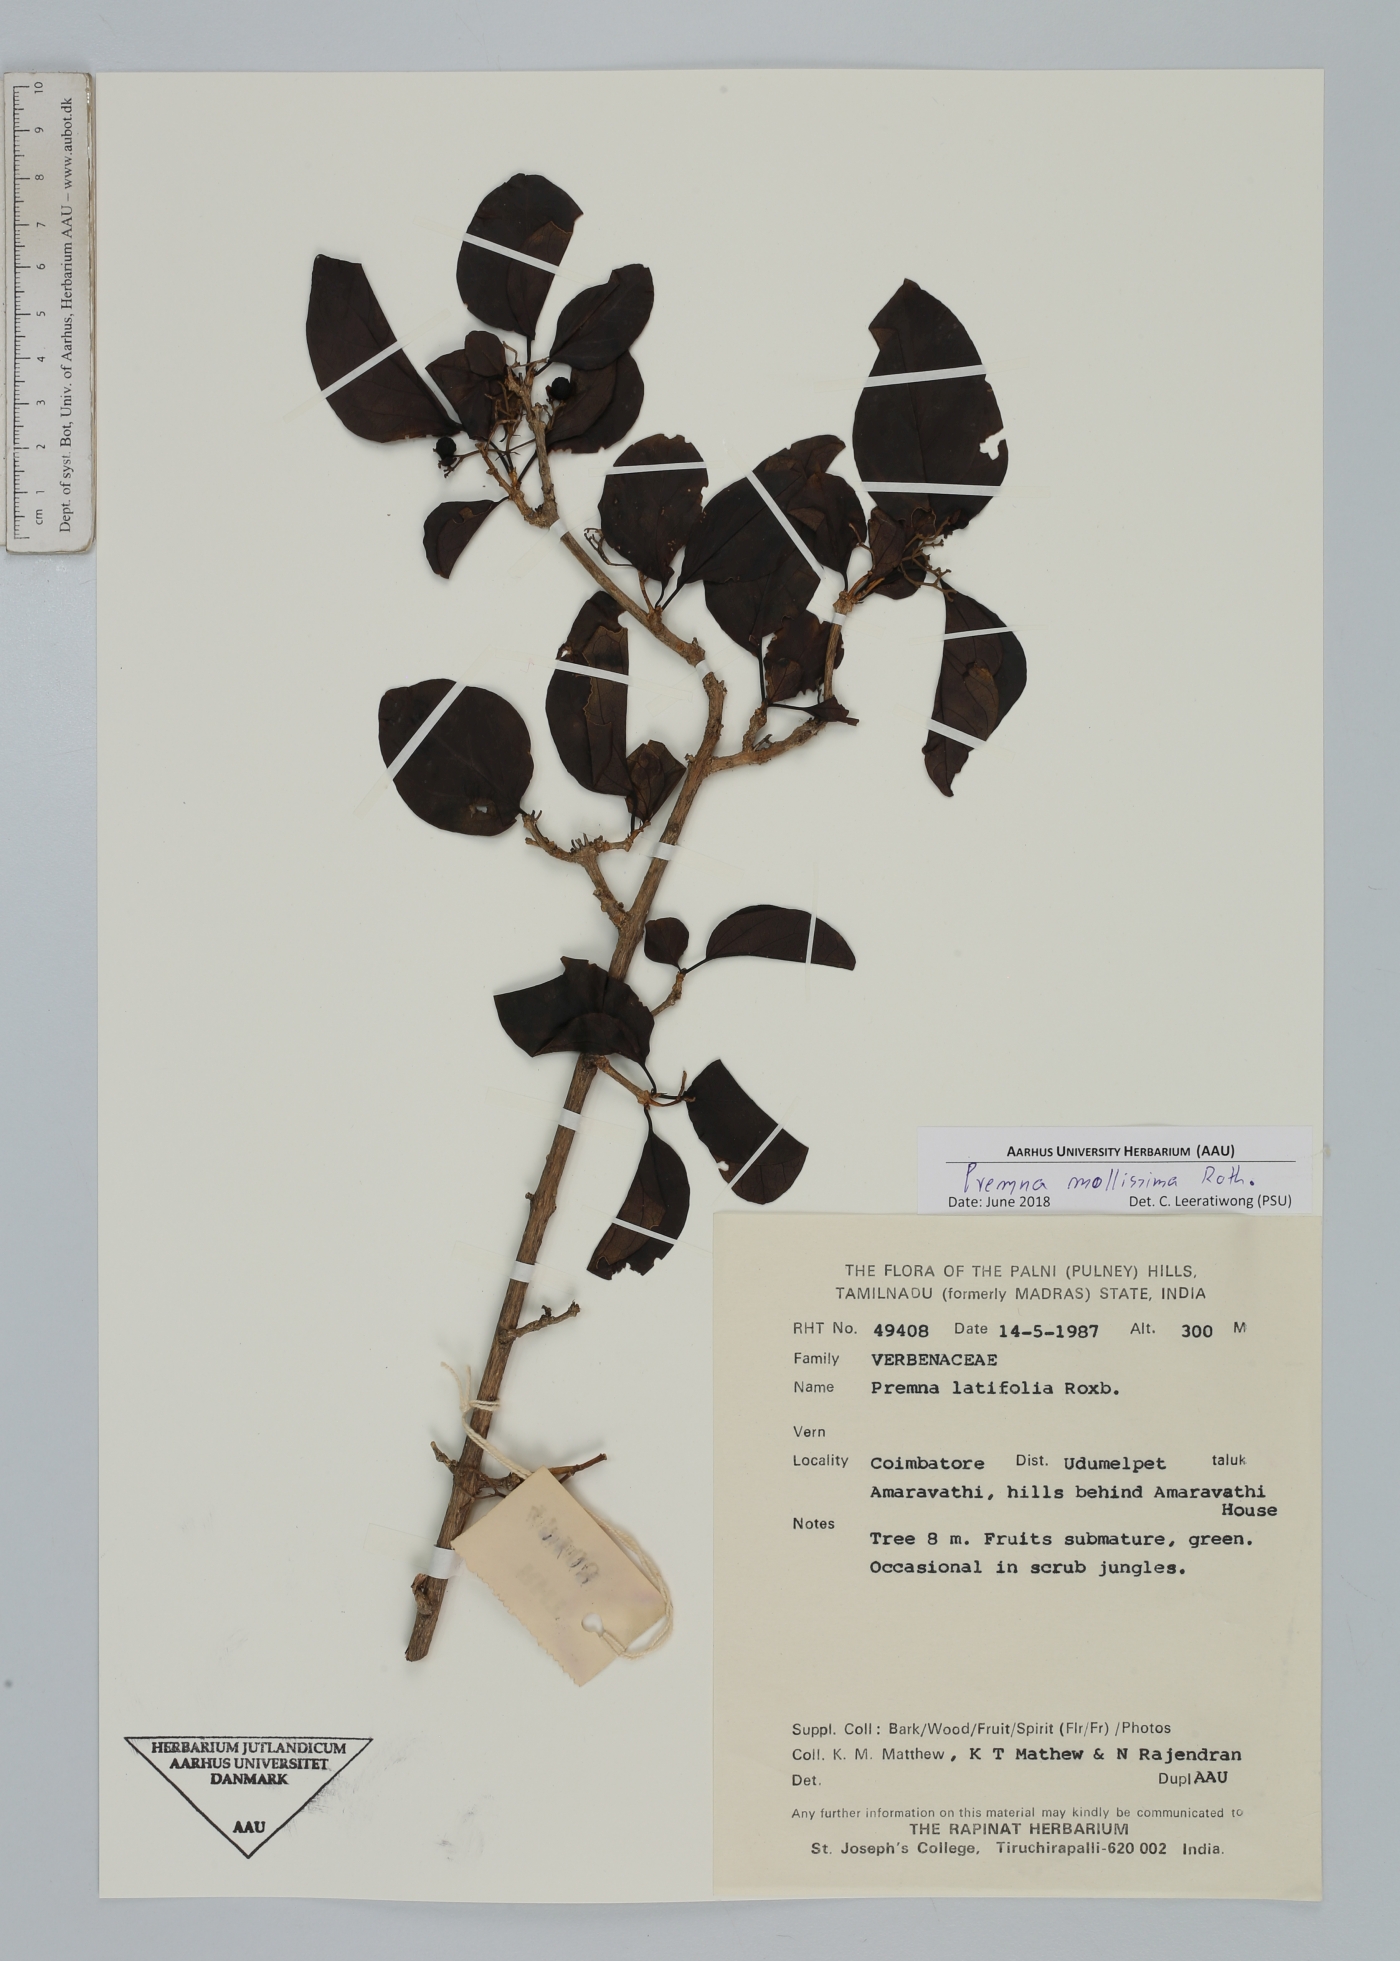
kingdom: Plantae
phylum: Tracheophyta
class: Magnoliopsida
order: Lamiales
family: Lamiaceae
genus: Premna
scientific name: Premna mollissima
